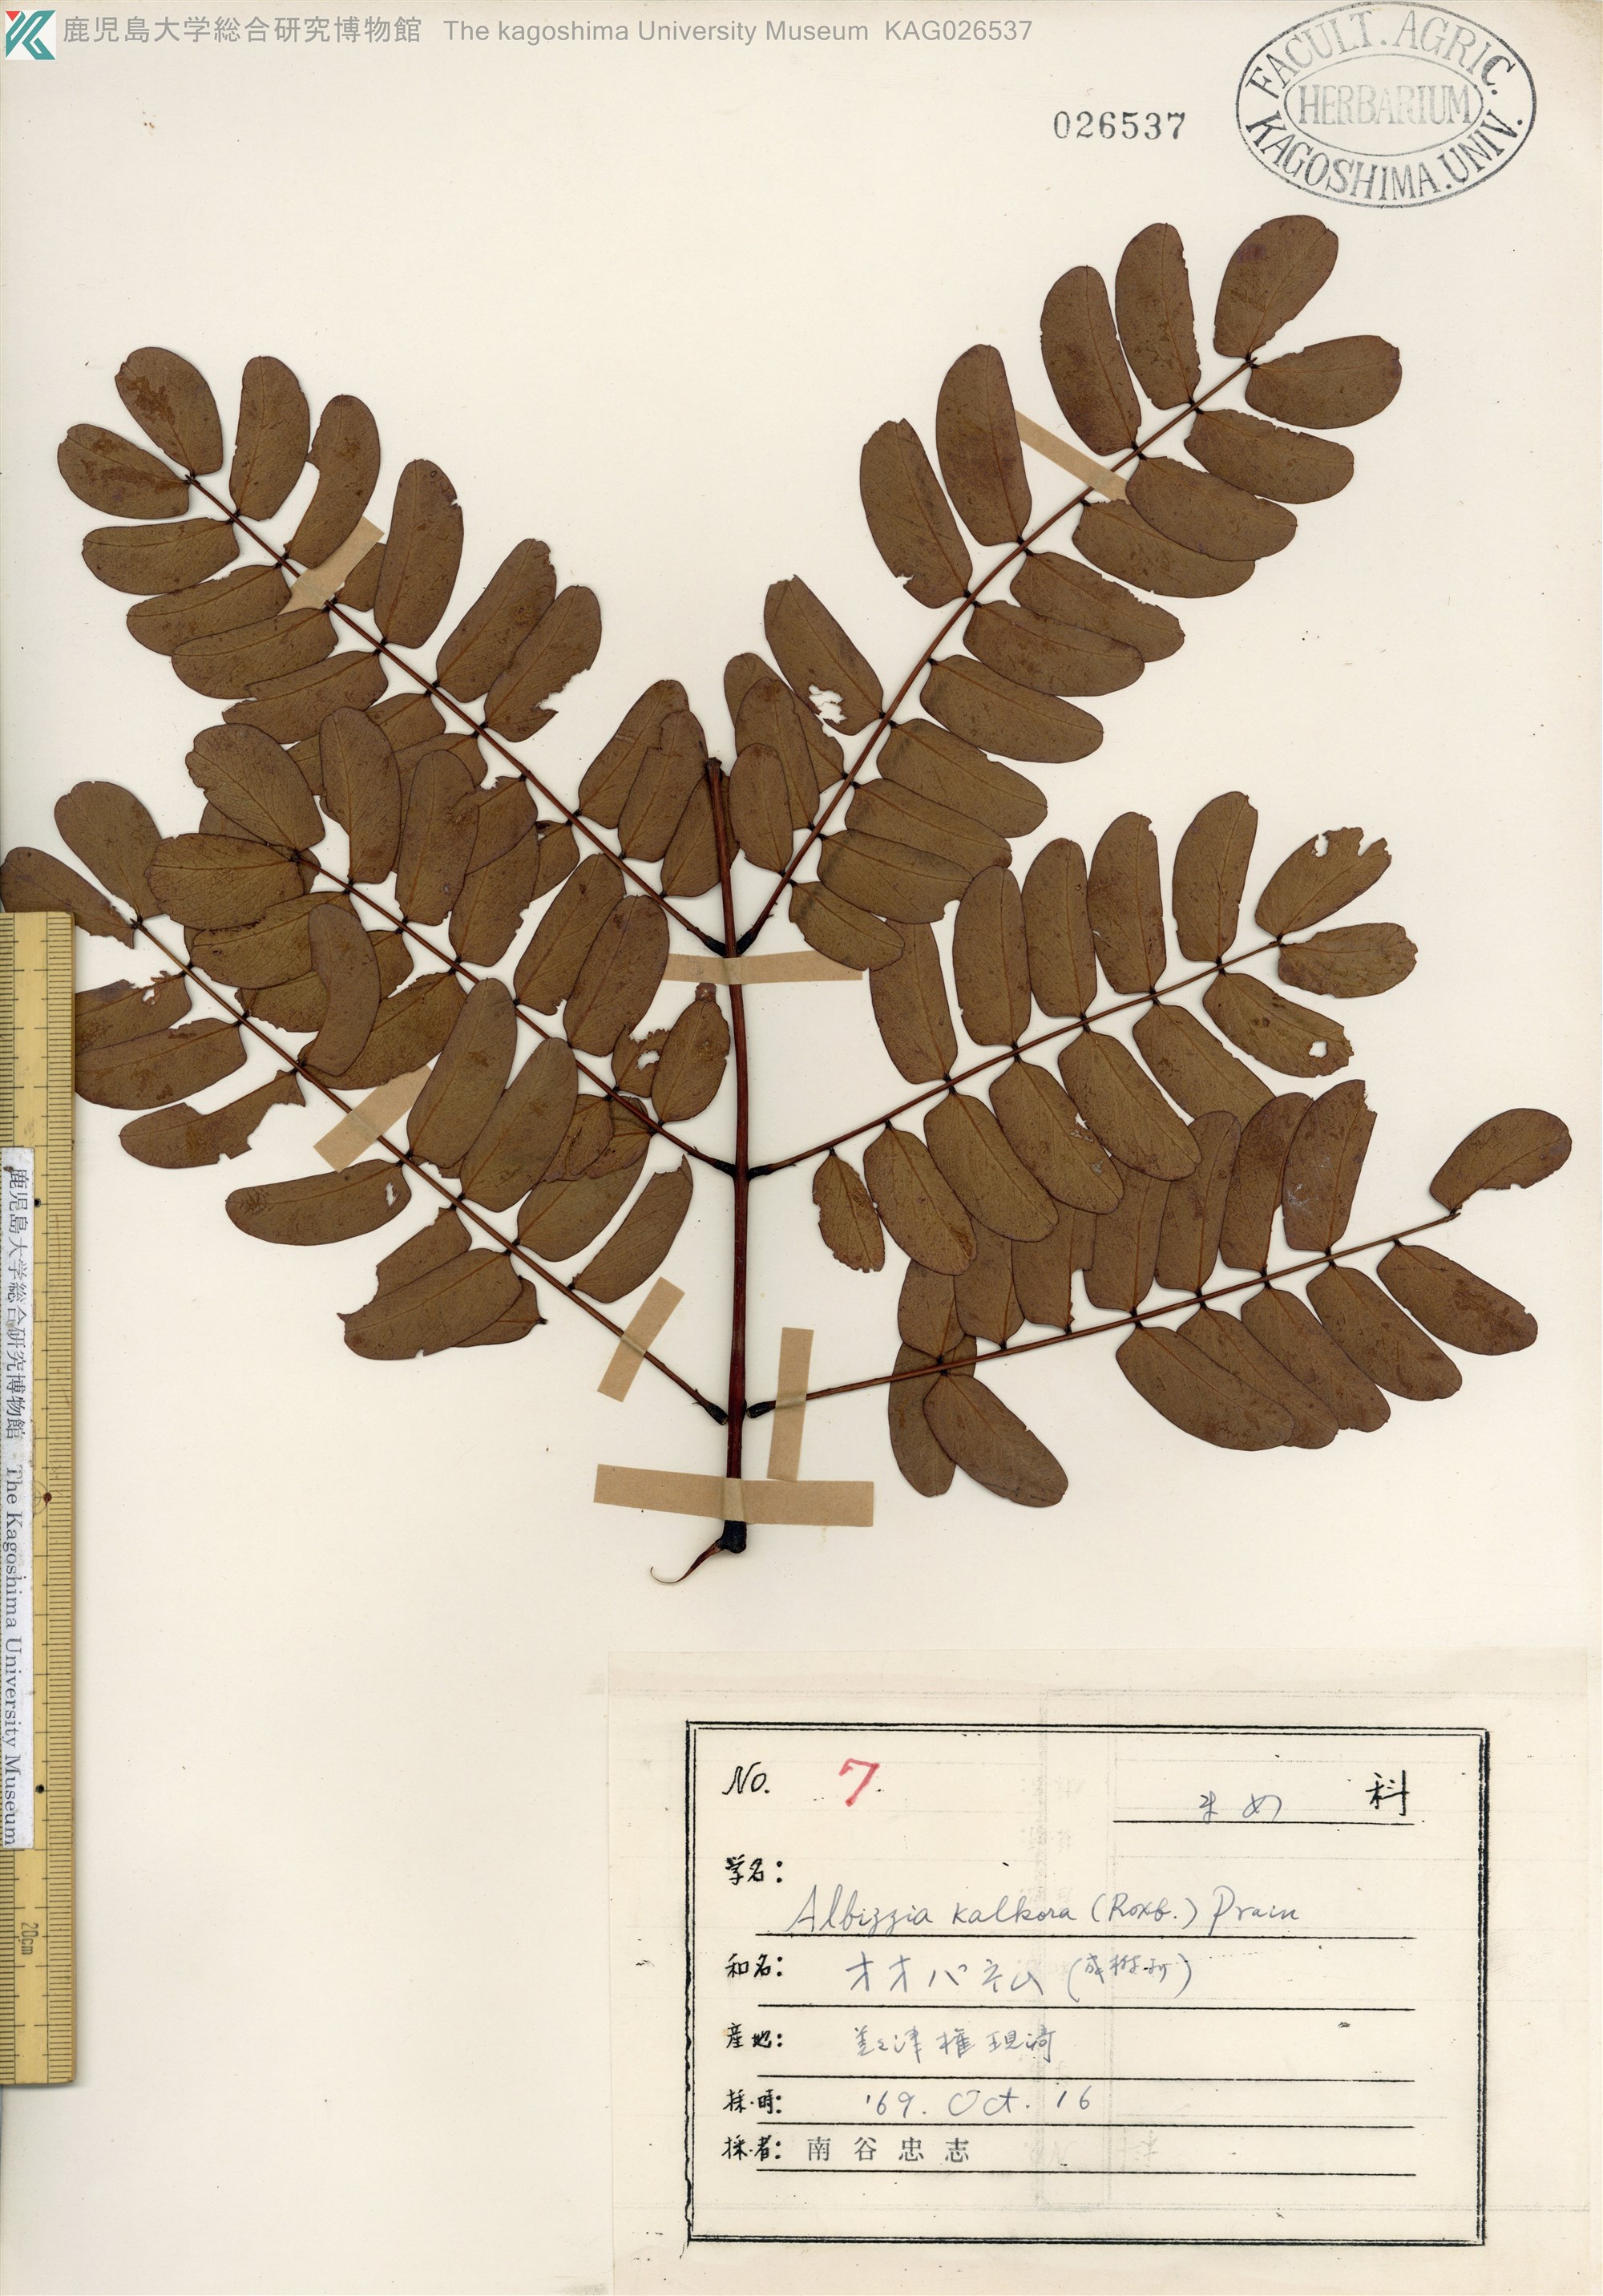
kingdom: Plantae
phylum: Tracheophyta
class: Magnoliopsida
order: Fabales
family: Fabaceae
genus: Albizia
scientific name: Albizia kalkora
